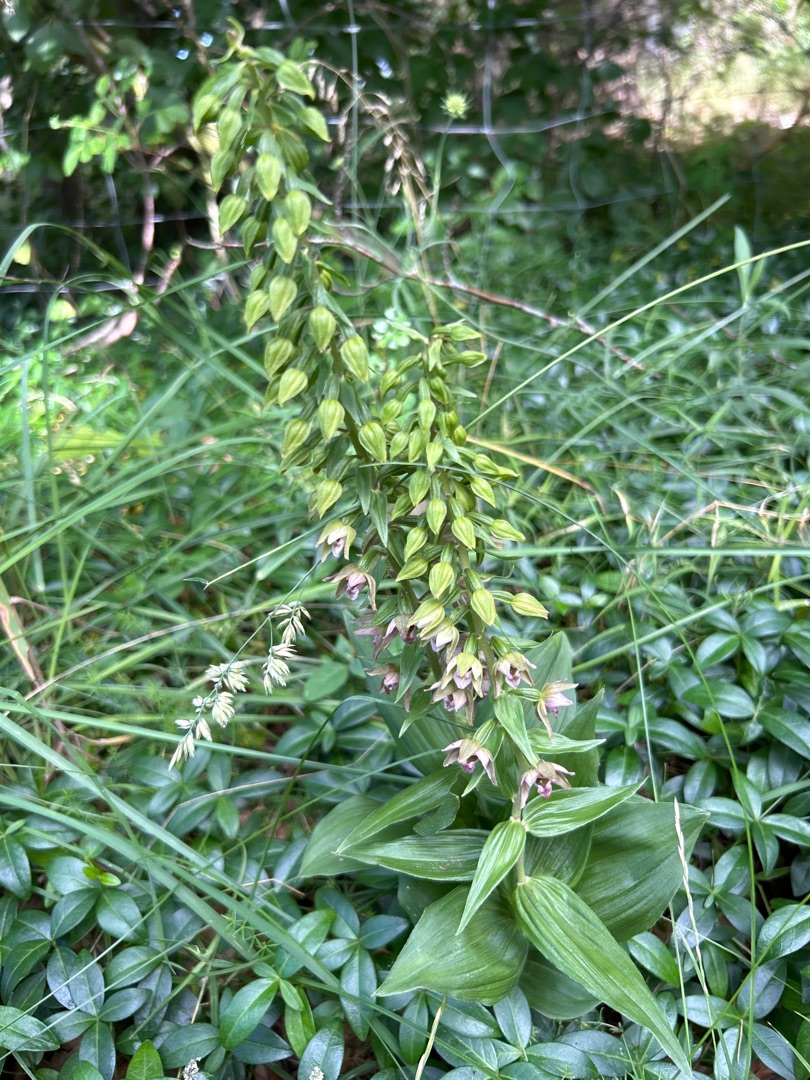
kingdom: Plantae
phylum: Tracheophyta
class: Liliopsida
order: Asparagales
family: Orchidaceae
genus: Epipactis
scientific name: Epipactis helleborine
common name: Skov-hullæbe
